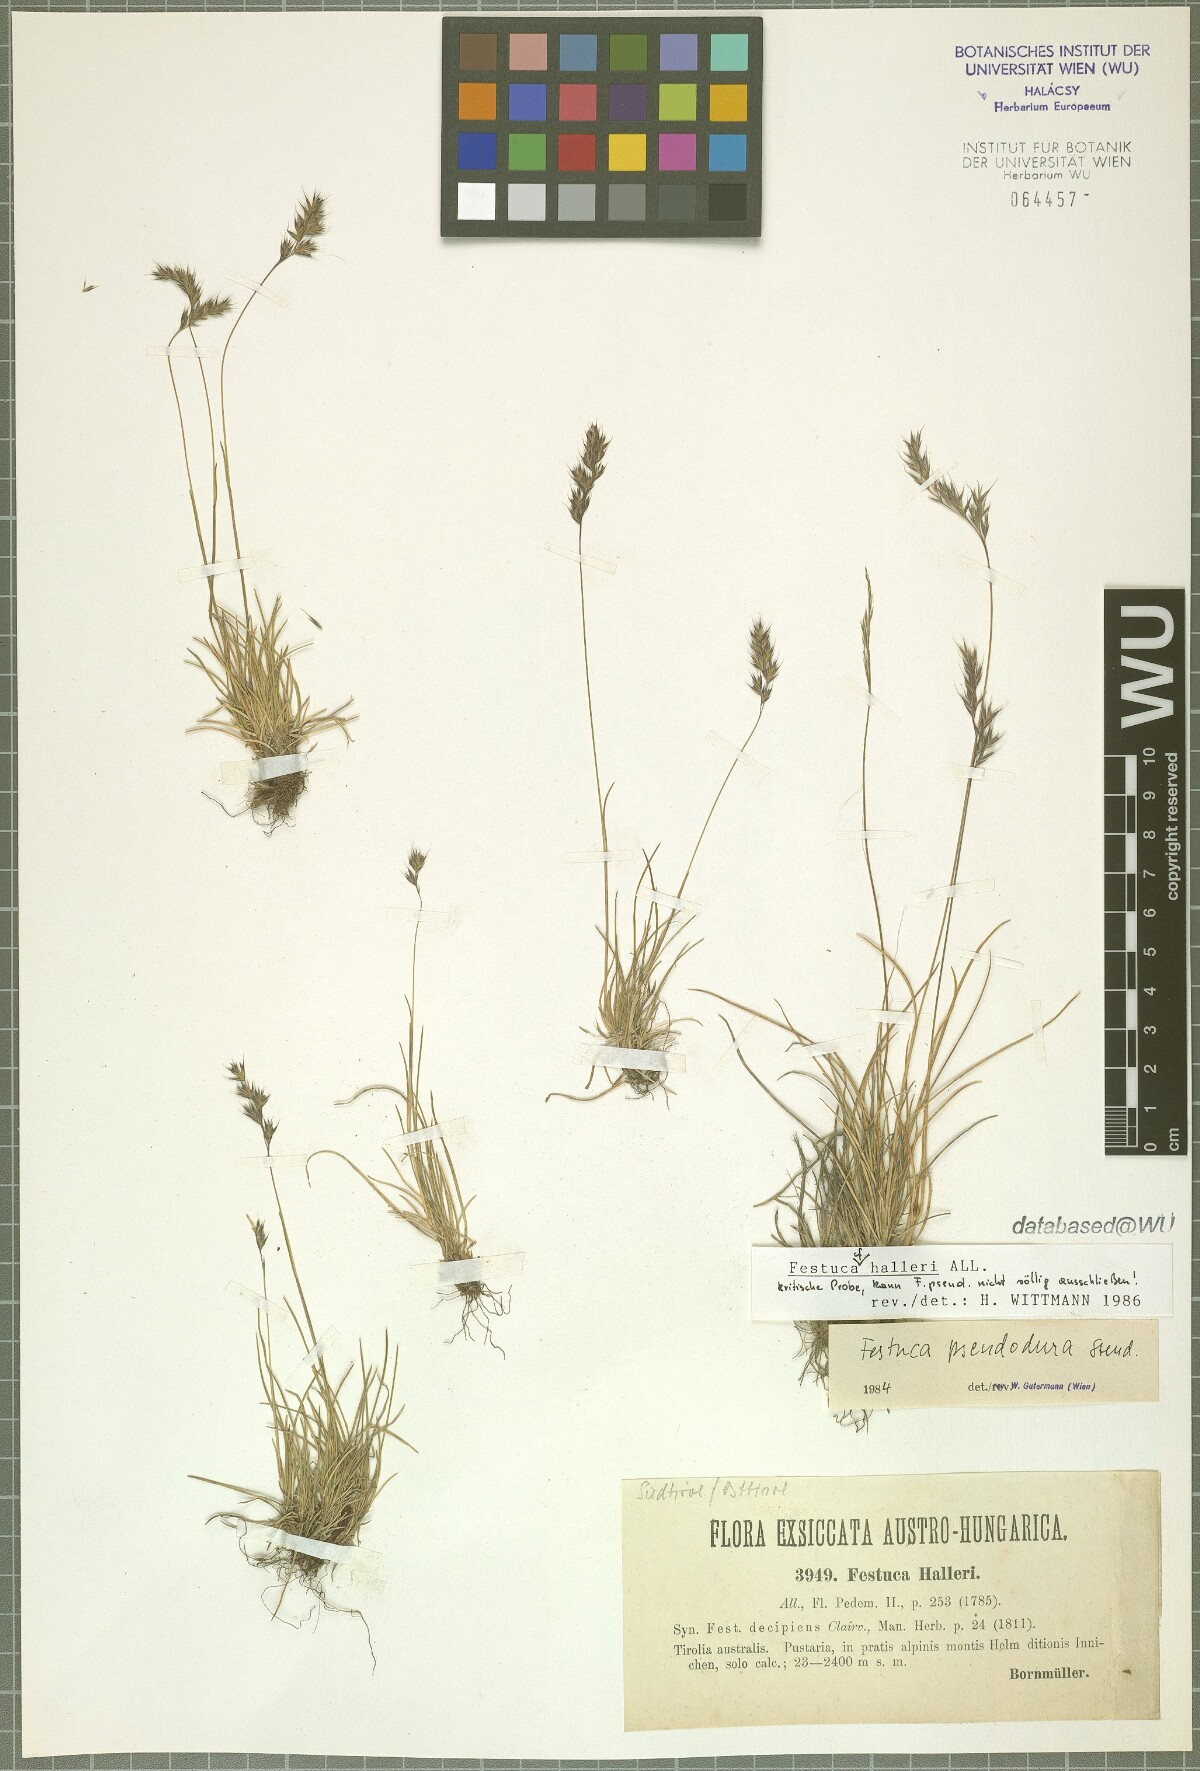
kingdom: Plantae
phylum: Tracheophyta
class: Liliopsida
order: Poales
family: Poaceae
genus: Festuca
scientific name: Festuca halleri
